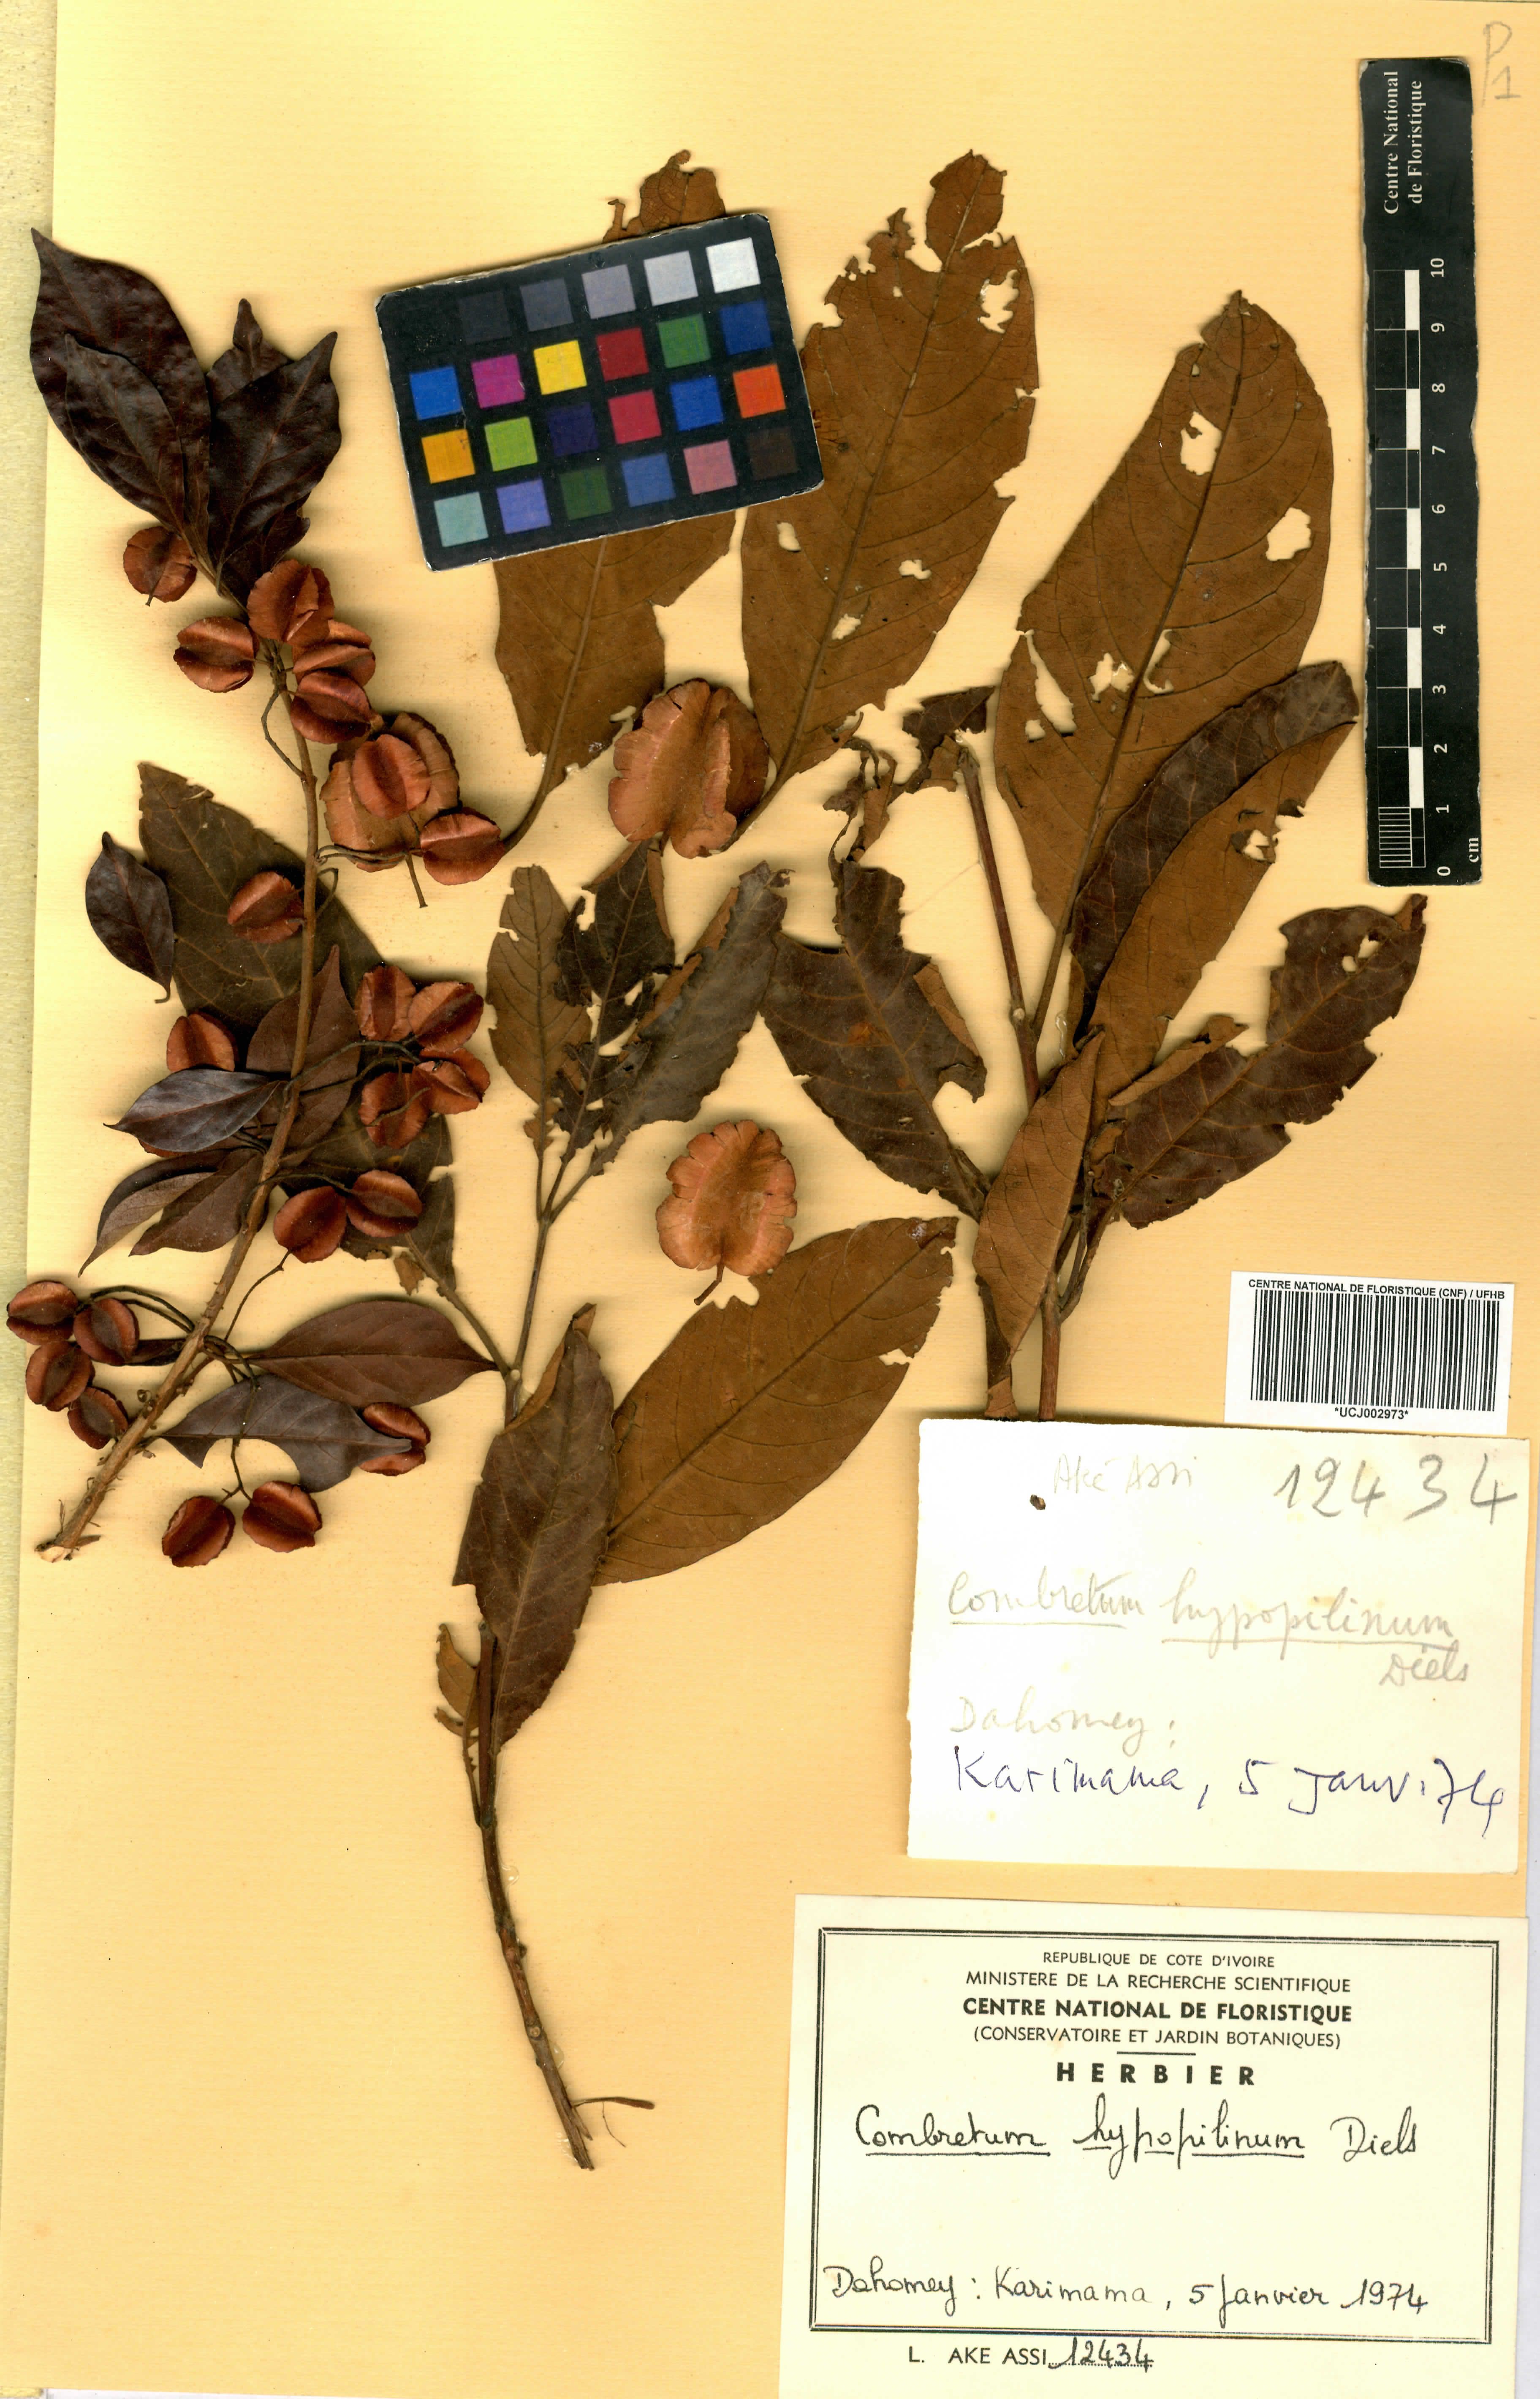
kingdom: Plantae
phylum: Tracheophyta
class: Magnoliopsida
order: Myrtales
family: Combretaceae
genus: Combretum
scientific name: Combretum collinum
